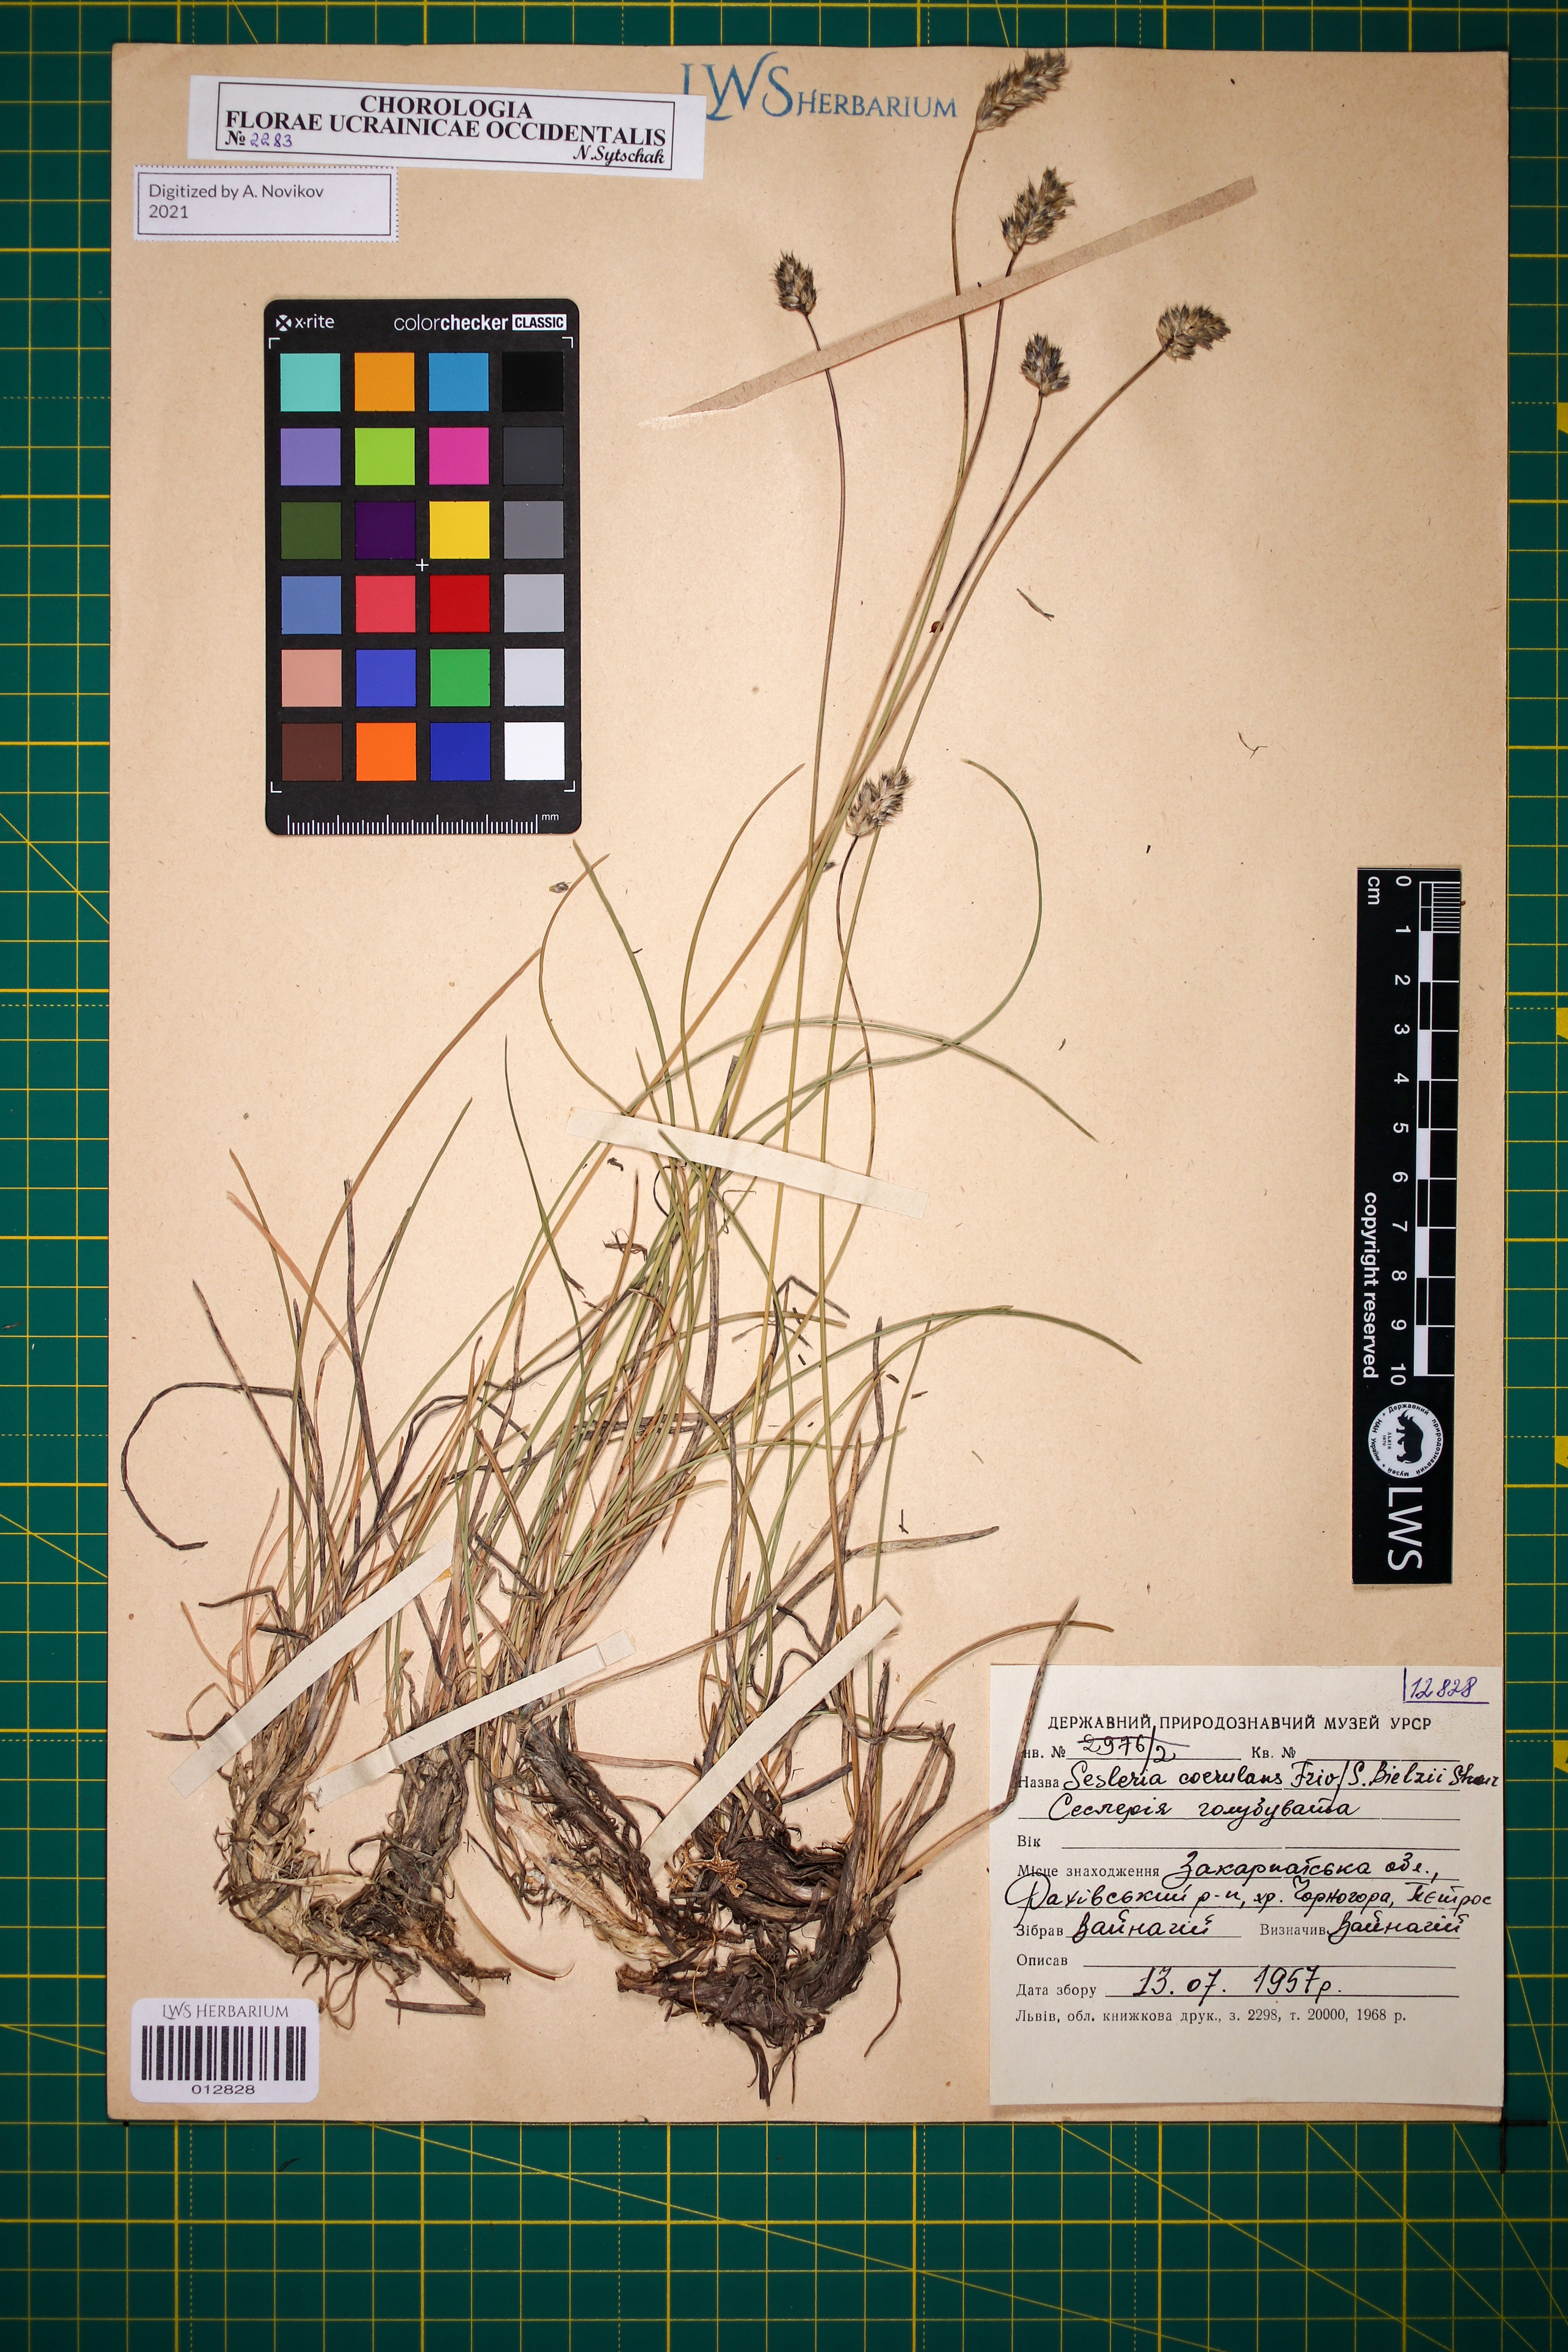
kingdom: Plantae
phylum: Tracheophyta
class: Liliopsida
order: Poales
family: Poaceae
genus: Sesleria
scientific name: Sesleria bielzii
